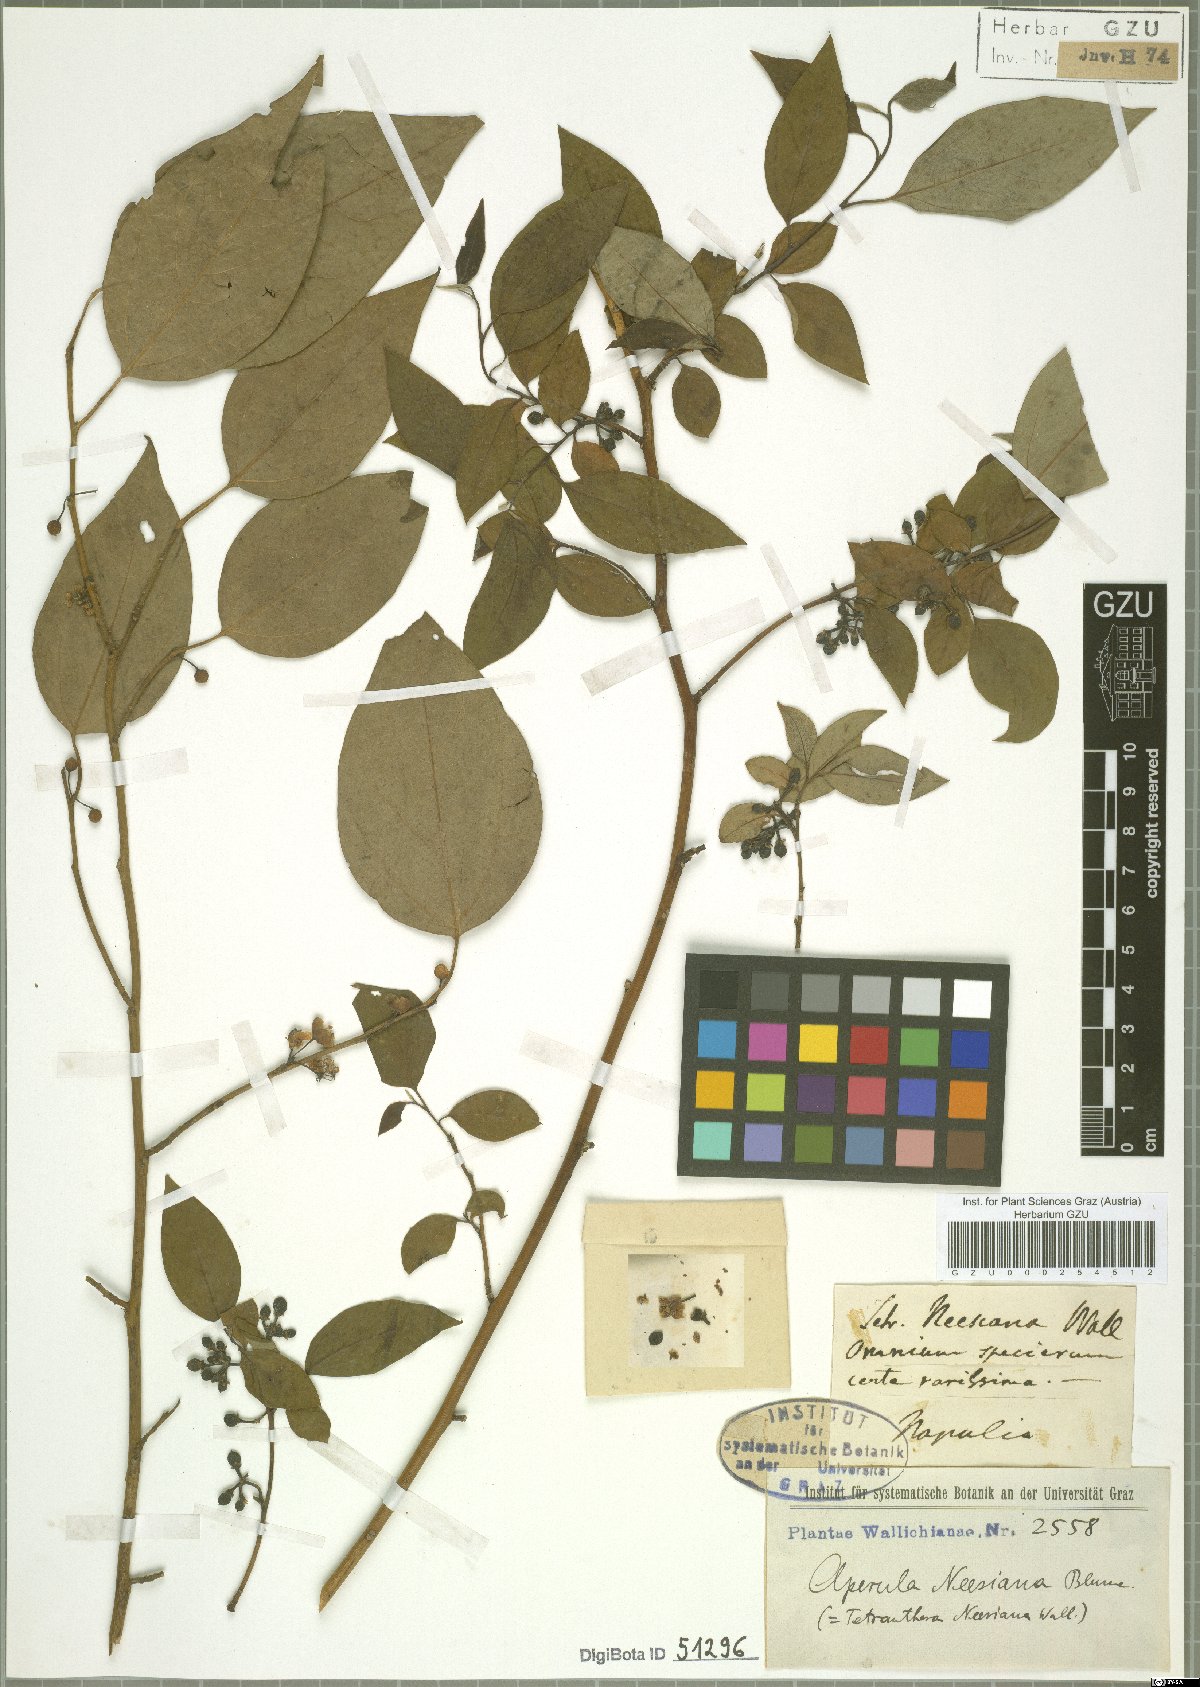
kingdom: Plantae
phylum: Tracheophyta
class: Magnoliopsida
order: Laurales
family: Lauraceae
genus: Lindera
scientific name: Lindera neesiana
